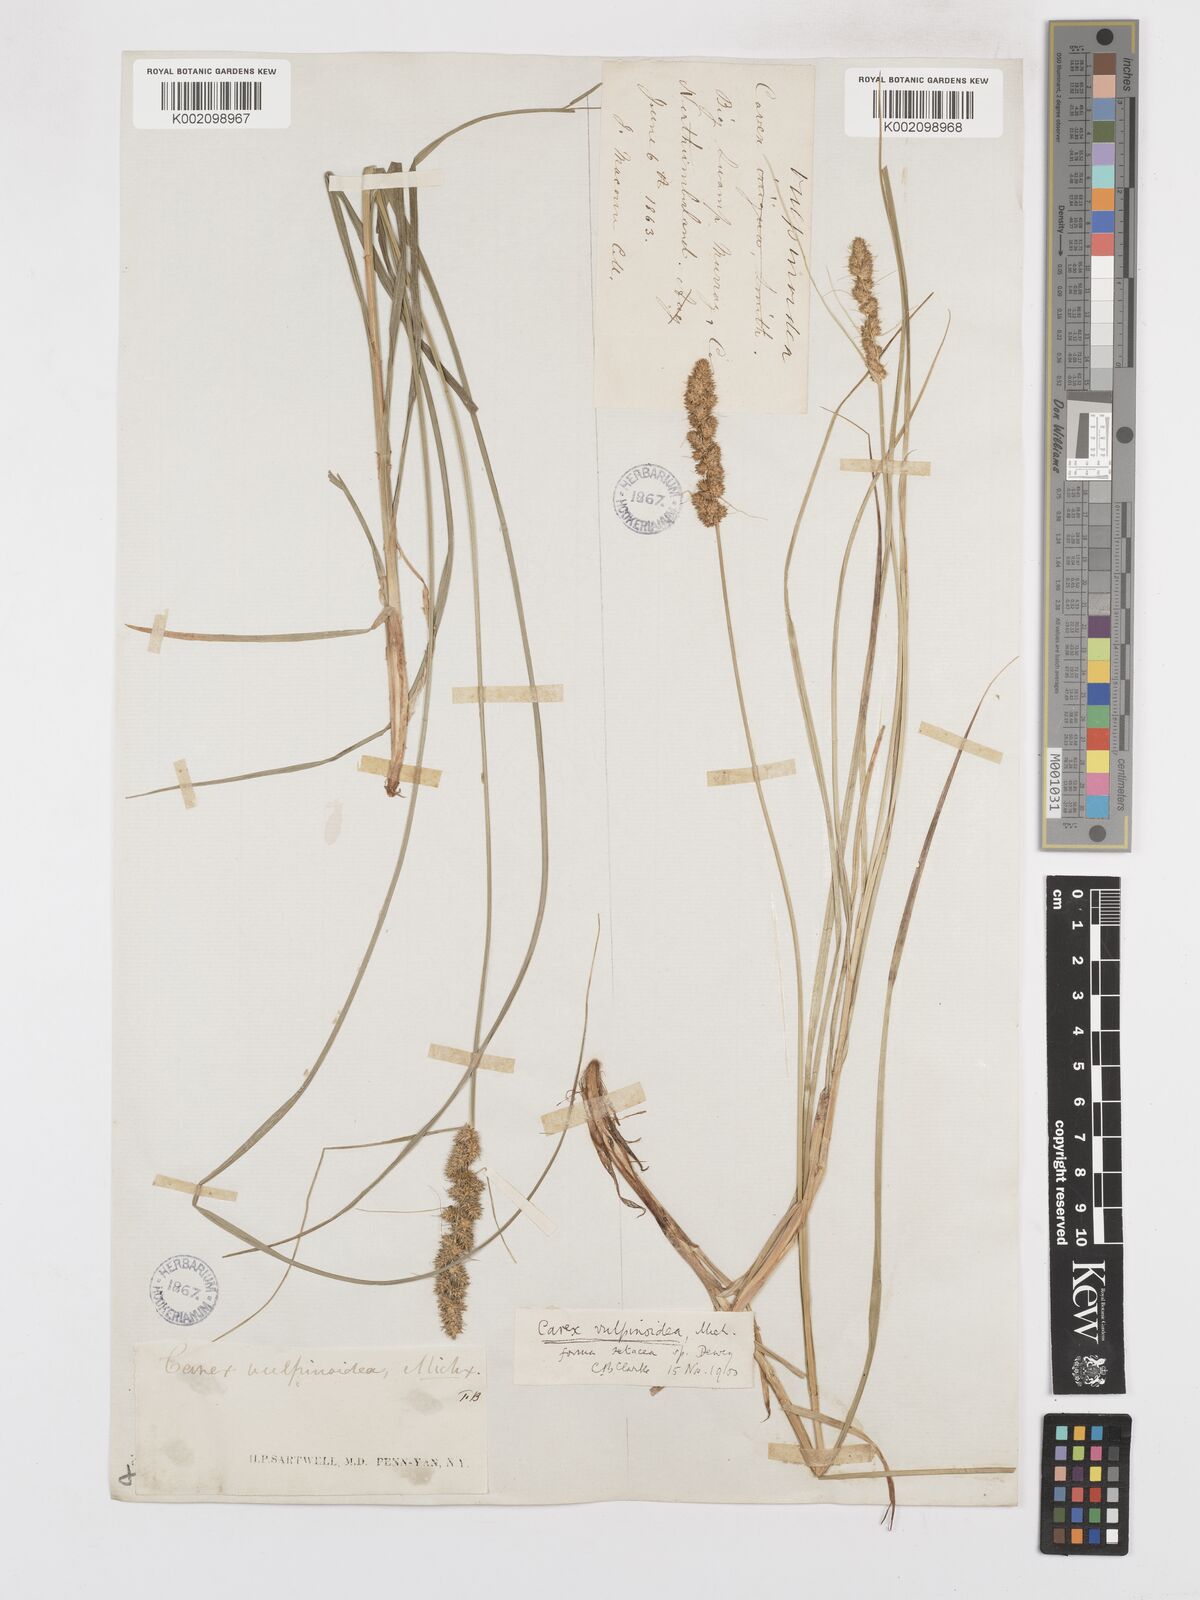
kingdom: Plantae
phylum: Tracheophyta
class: Liliopsida
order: Poales
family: Cyperaceae
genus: Carex
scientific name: Carex vulpinoidea
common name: American fox-sedge
